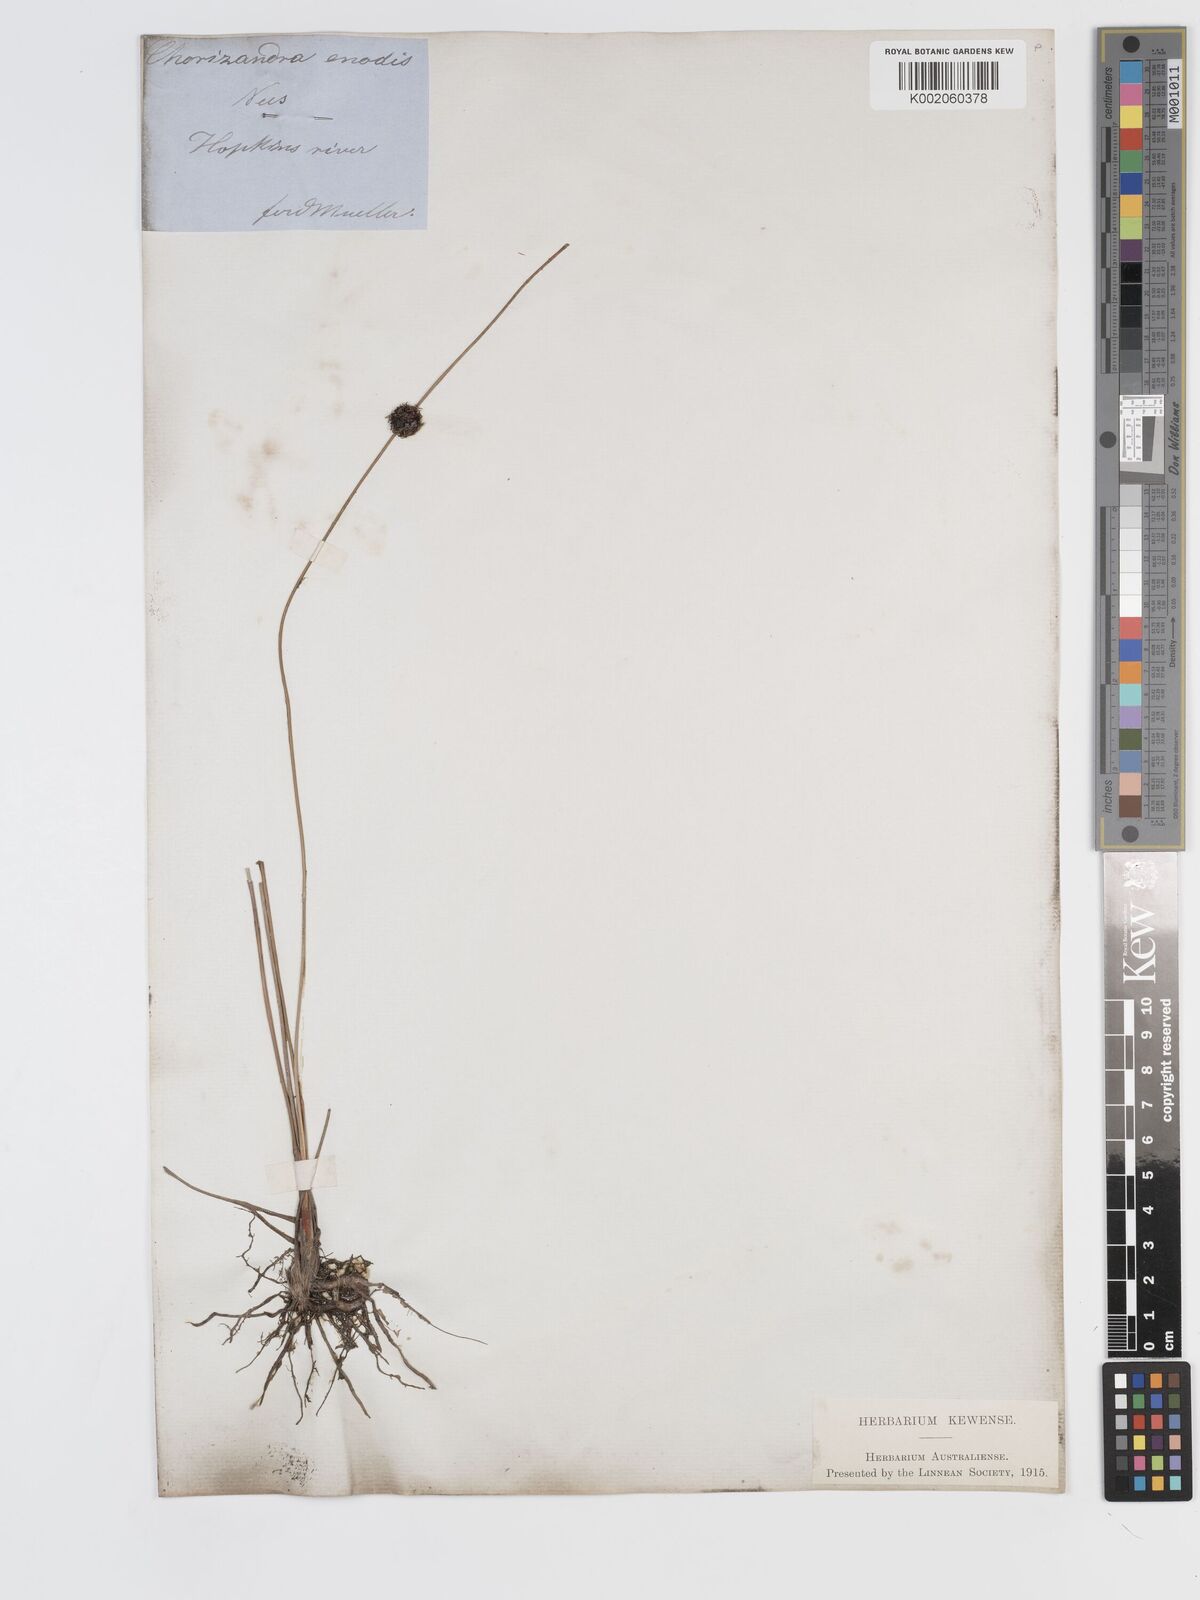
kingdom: Plantae
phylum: Tracheophyta
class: Liliopsida
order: Poales
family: Cyperaceae
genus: Chorizandra
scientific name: Chorizandra enodis
